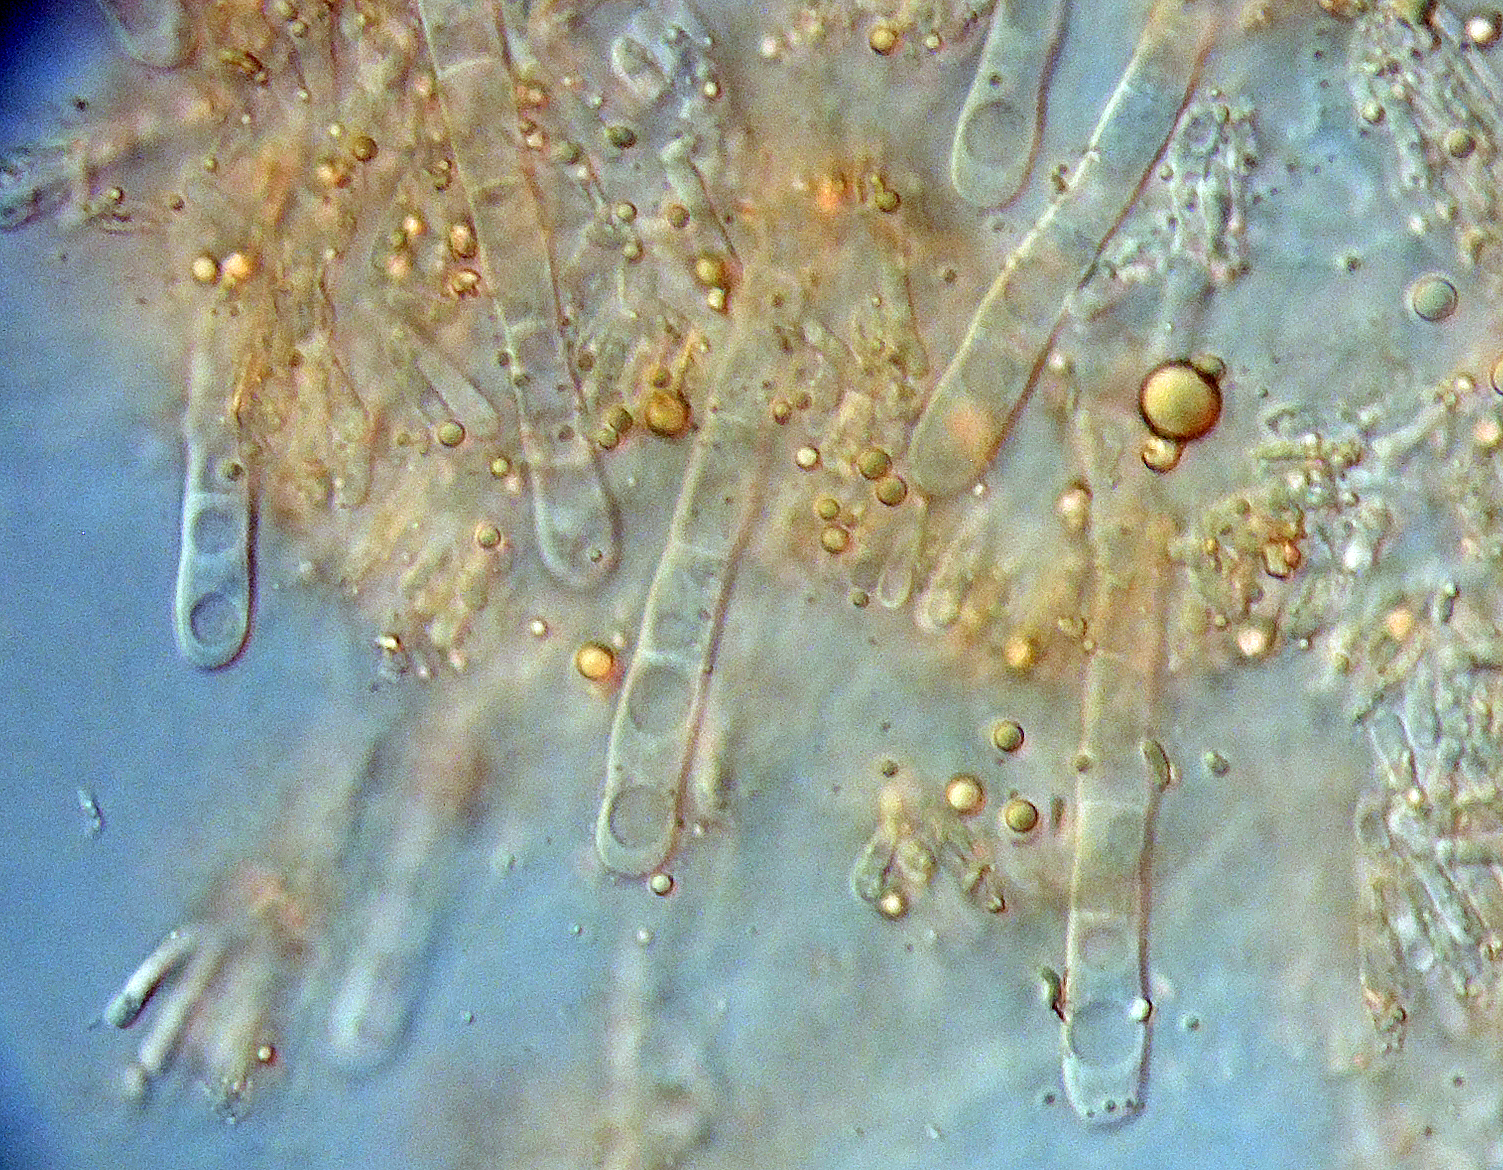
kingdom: Fungi
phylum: Basidiomycota
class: Agaricomycetes
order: Hymenochaetales
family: Rickenellaceae
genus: Odonticium
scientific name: Odonticium septocystidia
